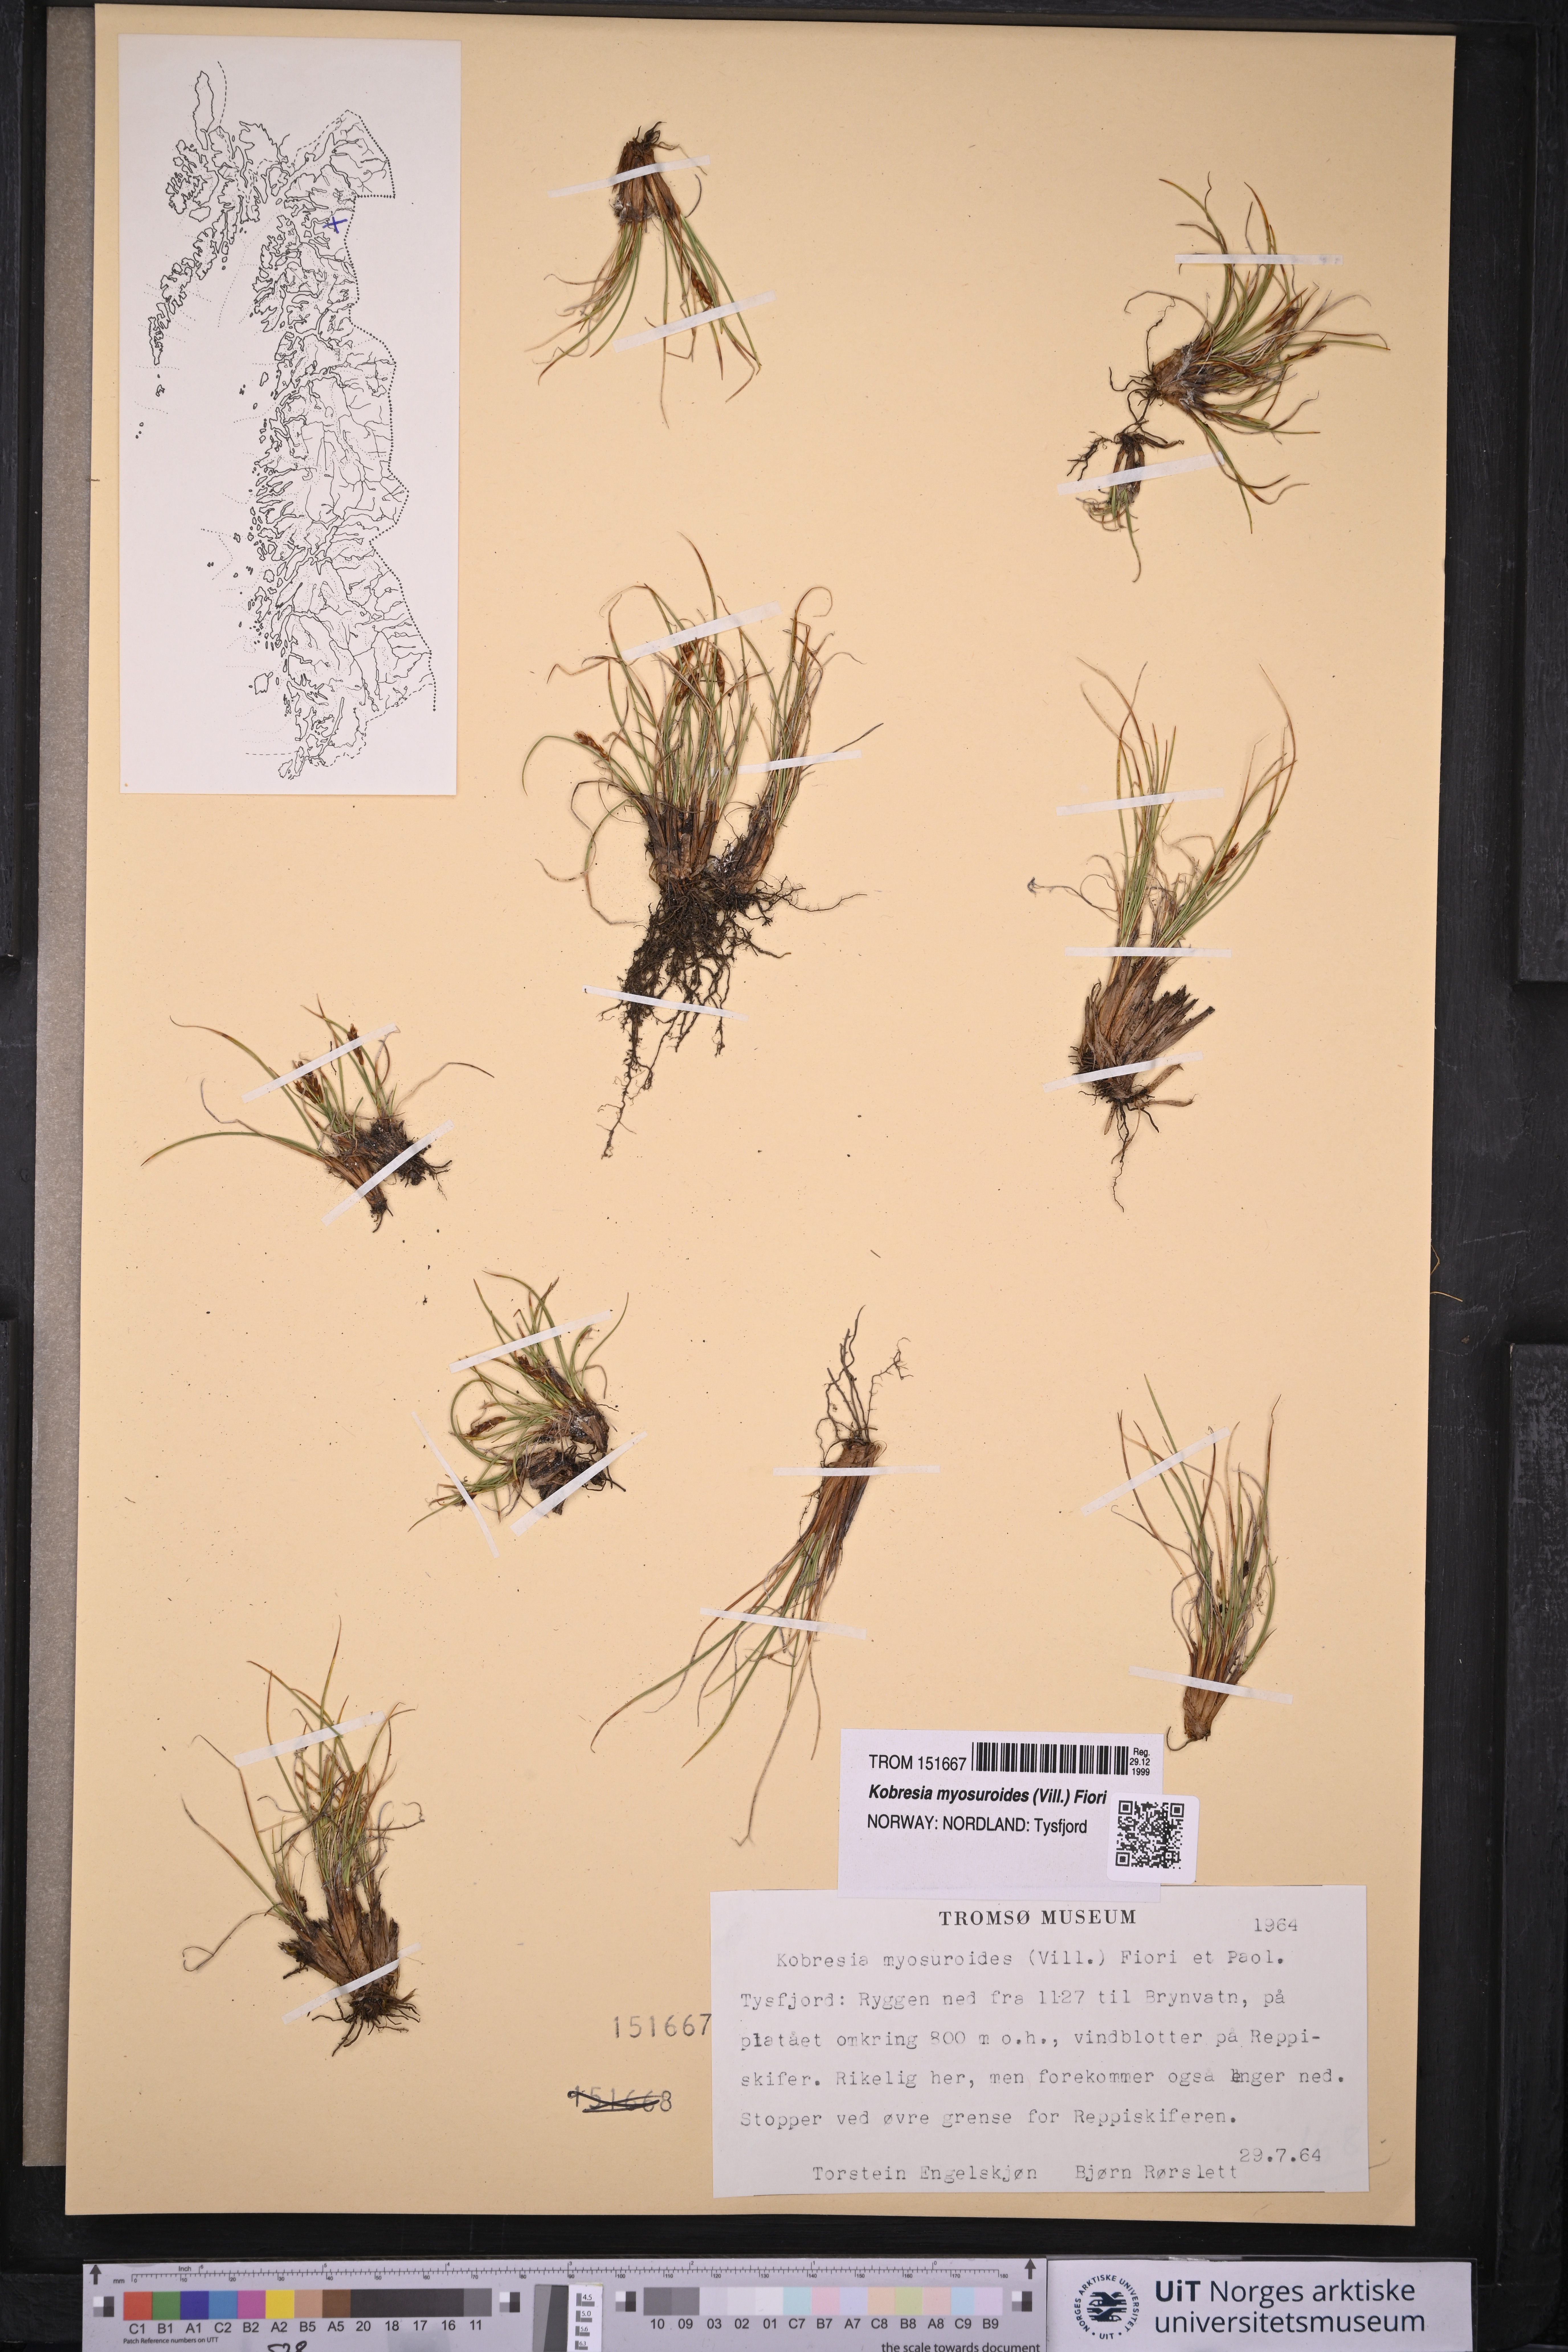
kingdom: Plantae
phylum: Tracheophyta
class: Liliopsida
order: Poales
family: Cyperaceae
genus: Carex
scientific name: Carex myosuroides
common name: Bellard's bog sedge
